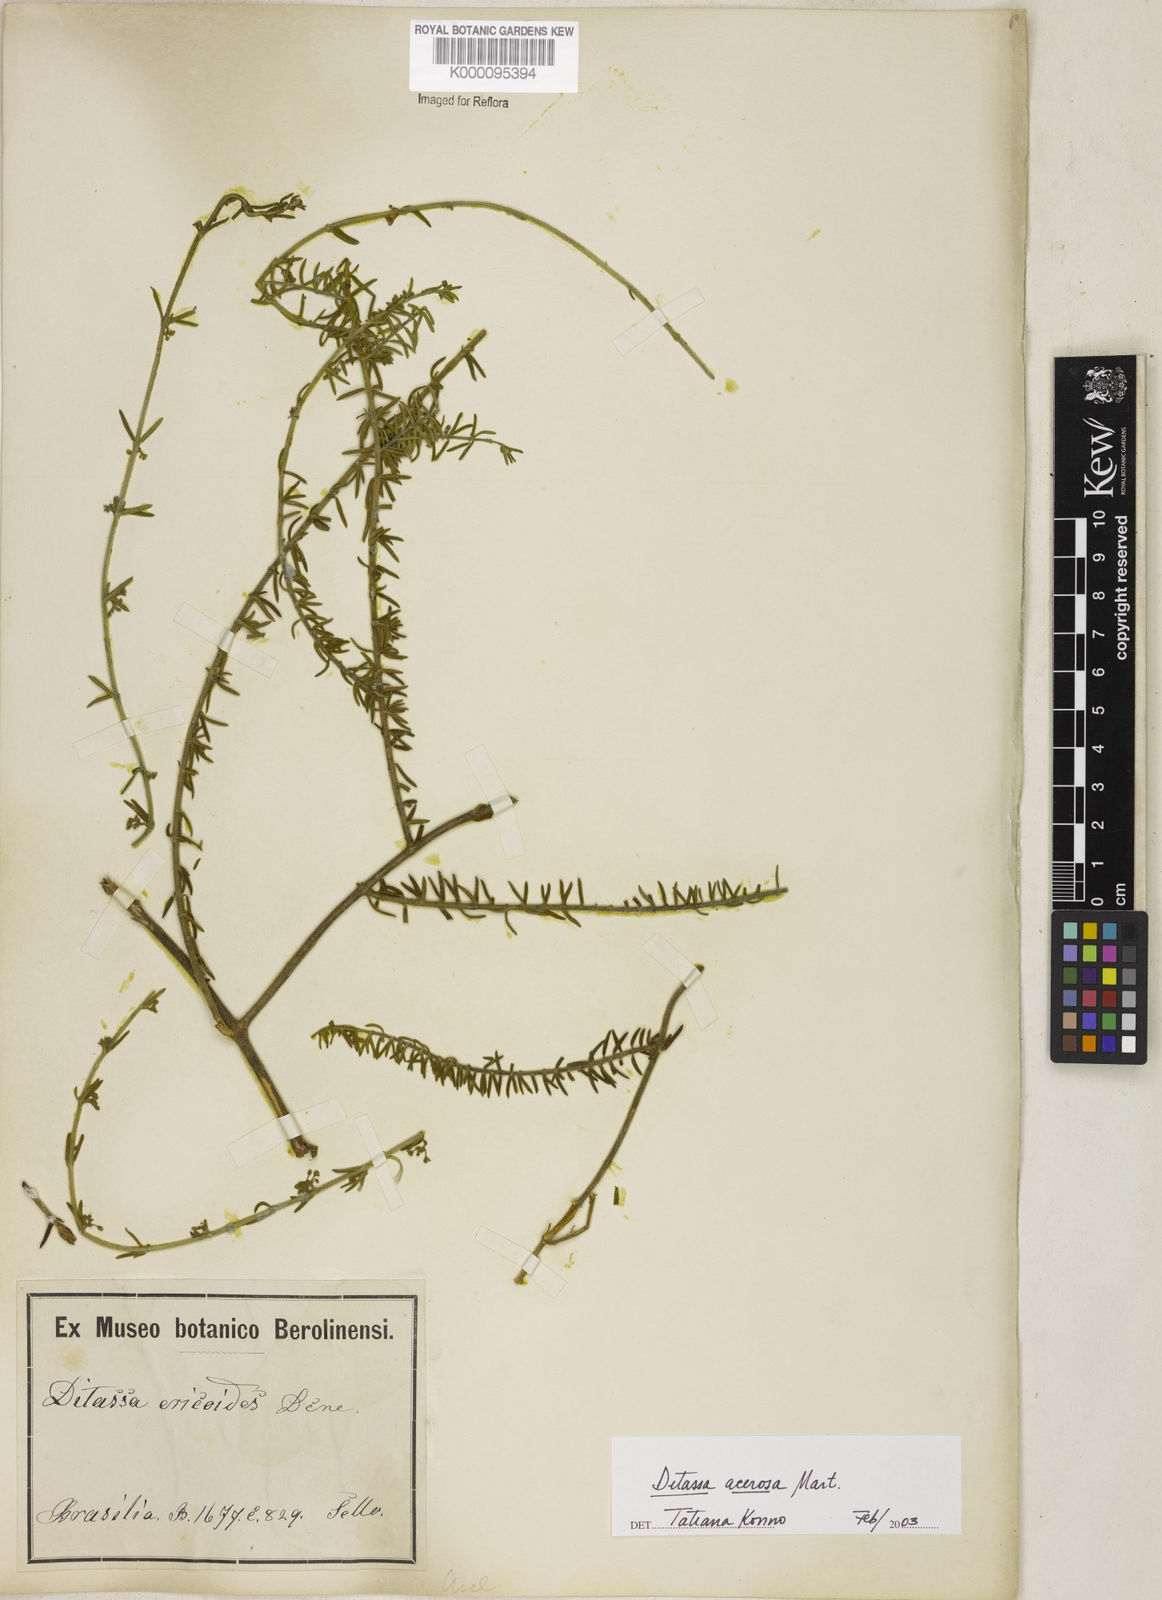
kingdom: Plantae
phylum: Tracheophyta
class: Magnoliopsida
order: Gentianales
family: Apocynaceae
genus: Minaria
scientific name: Minaria acerosa
